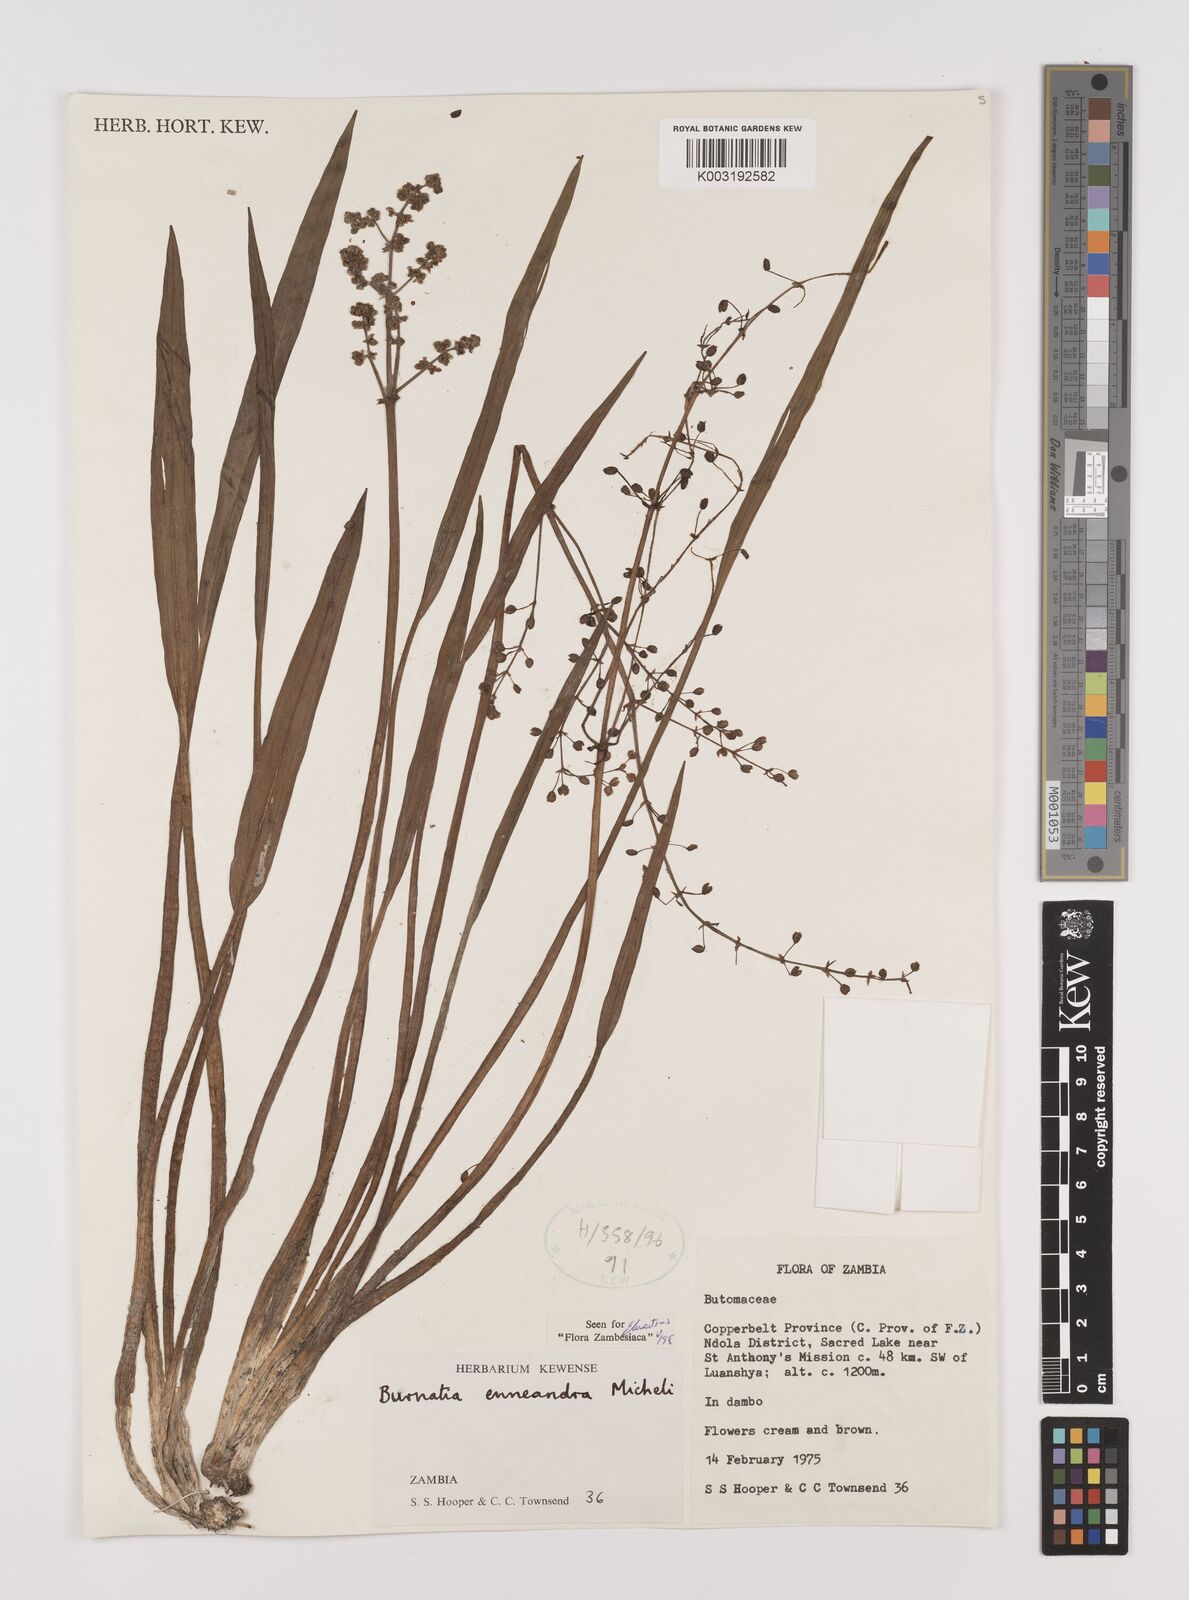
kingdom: Plantae
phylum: Tracheophyta
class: Liliopsida
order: Alismatales
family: Alismataceae
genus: Burnatia
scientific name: Burnatia enneandra
